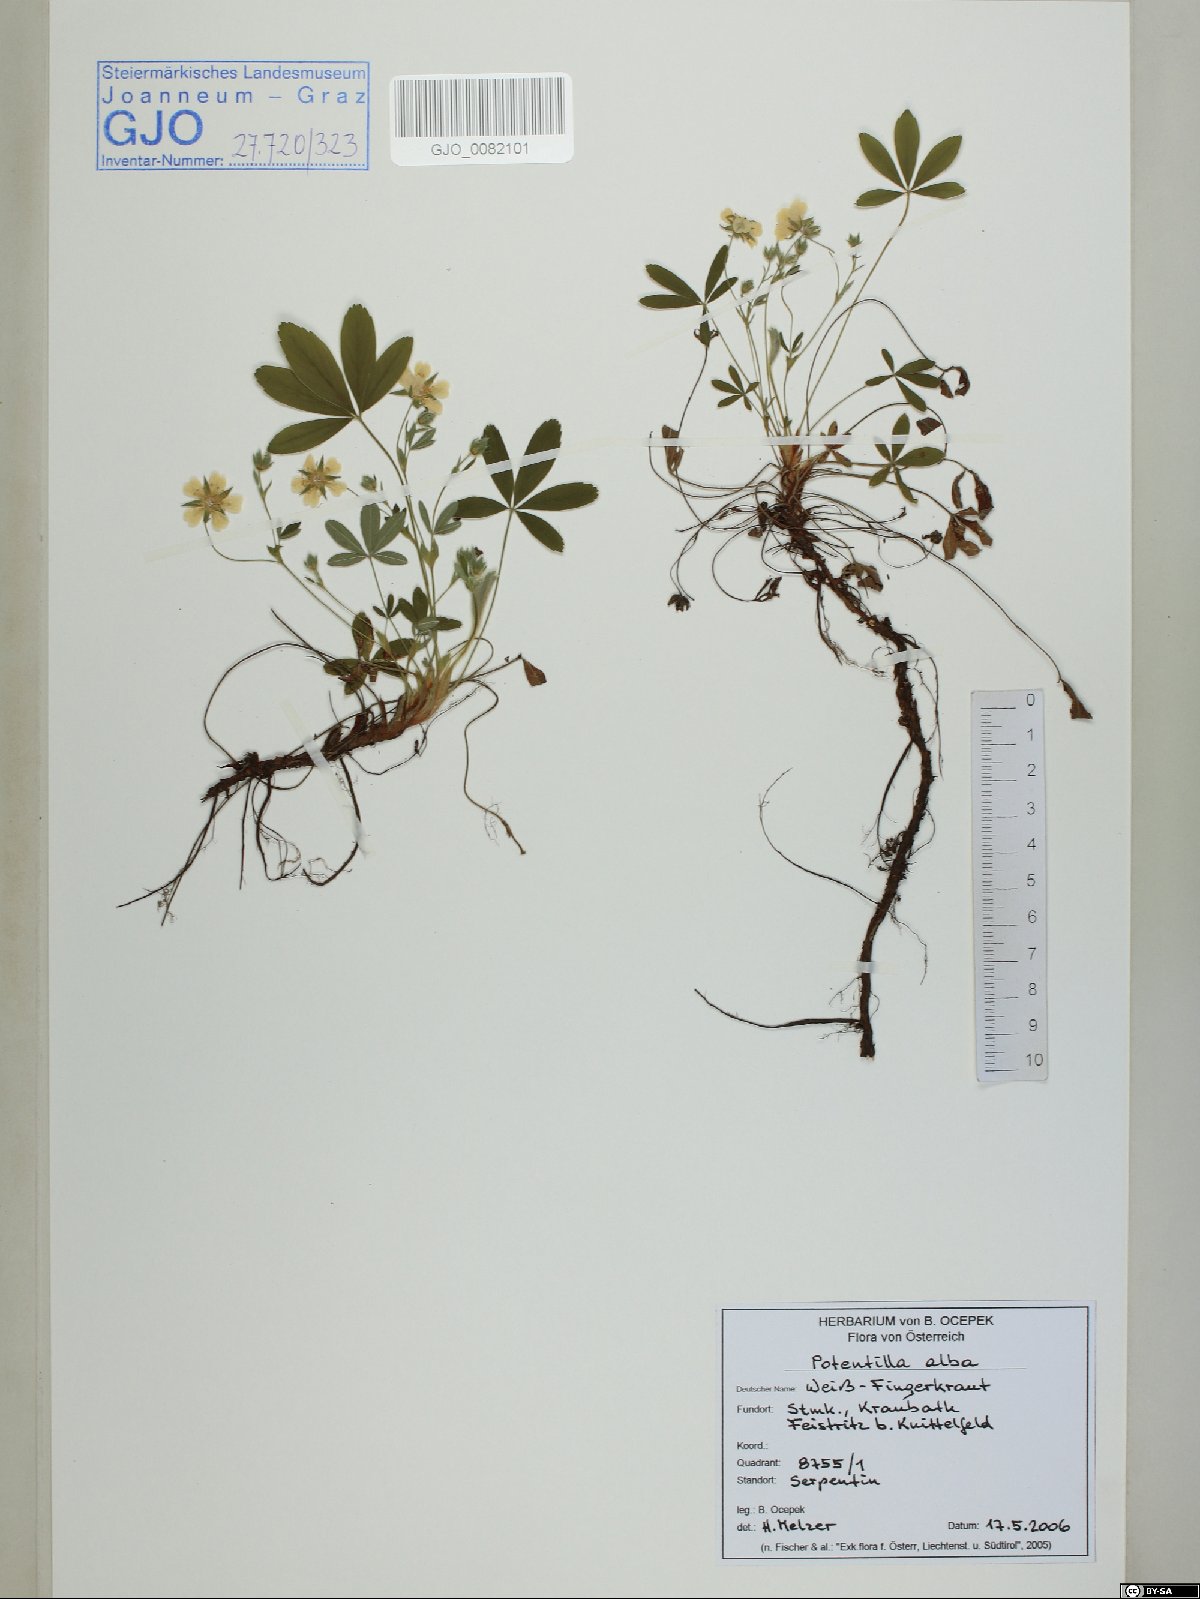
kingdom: Plantae
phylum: Tracheophyta
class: Magnoliopsida
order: Rosales
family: Rosaceae
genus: Potentilla
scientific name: Potentilla alba
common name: White cinquefoil
